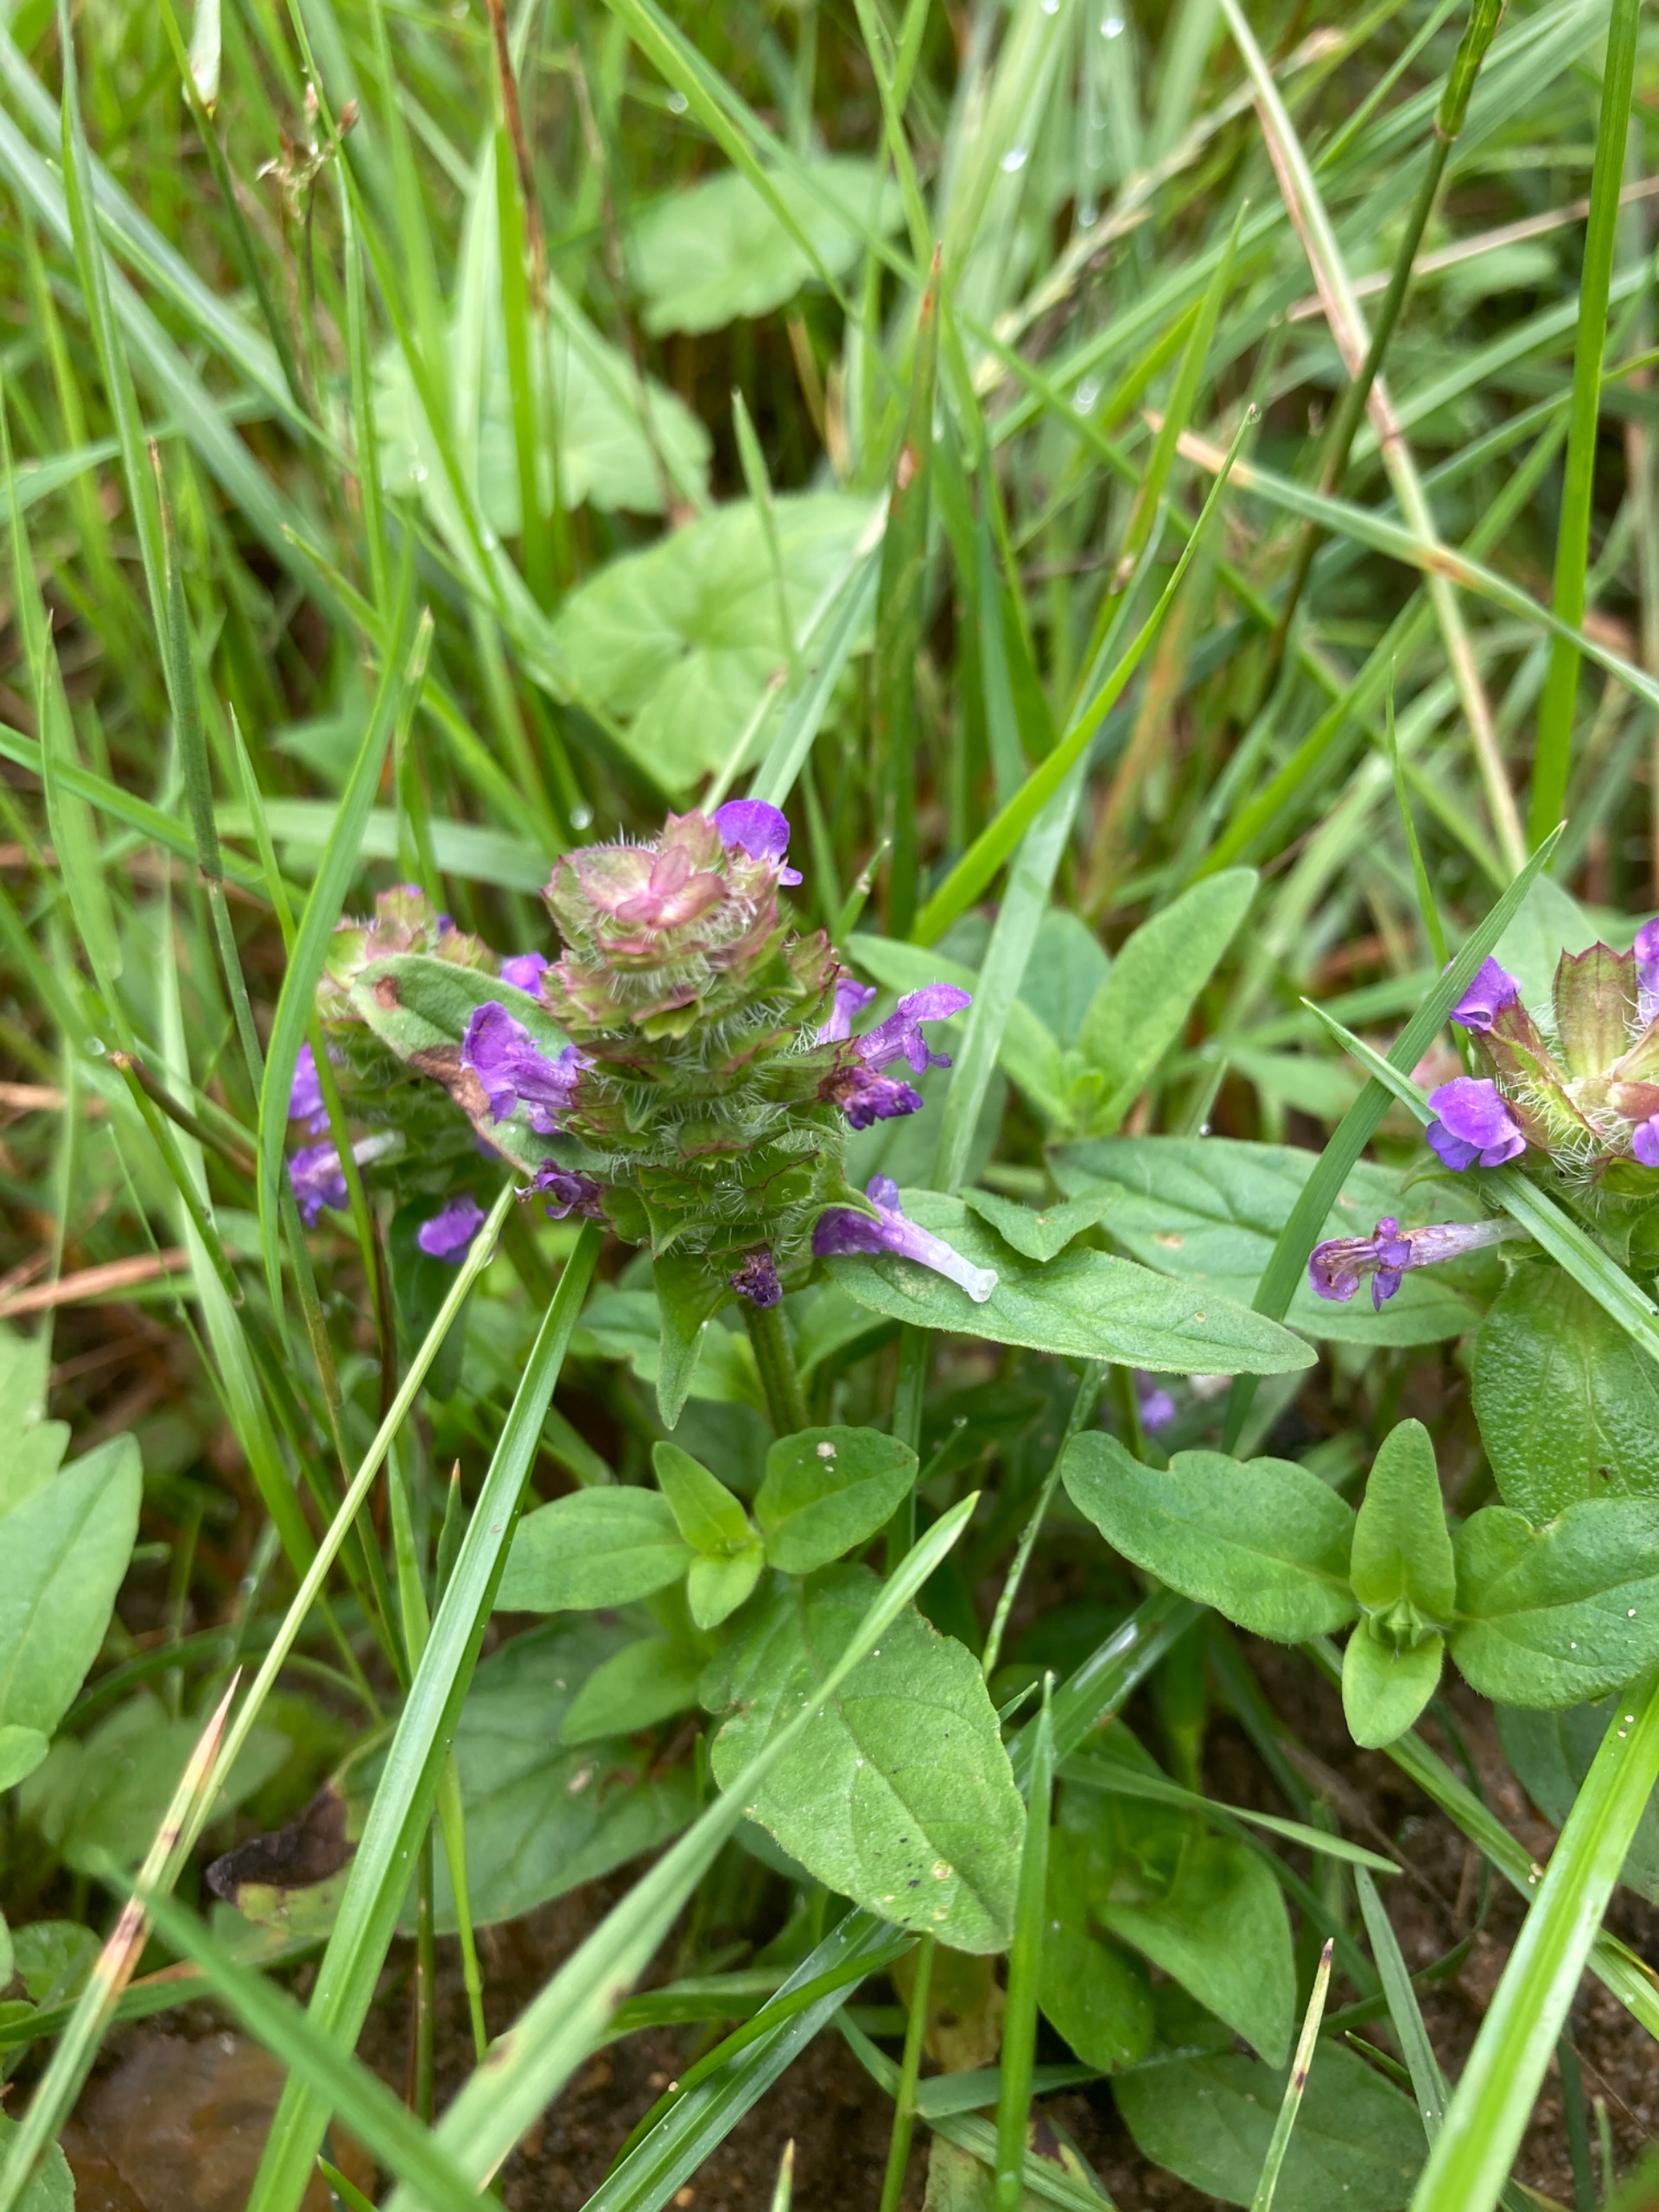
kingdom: Plantae
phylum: Tracheophyta
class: Magnoliopsida
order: Lamiales
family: Lamiaceae
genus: Prunella
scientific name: Prunella vulgaris
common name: Almindelig brunelle
